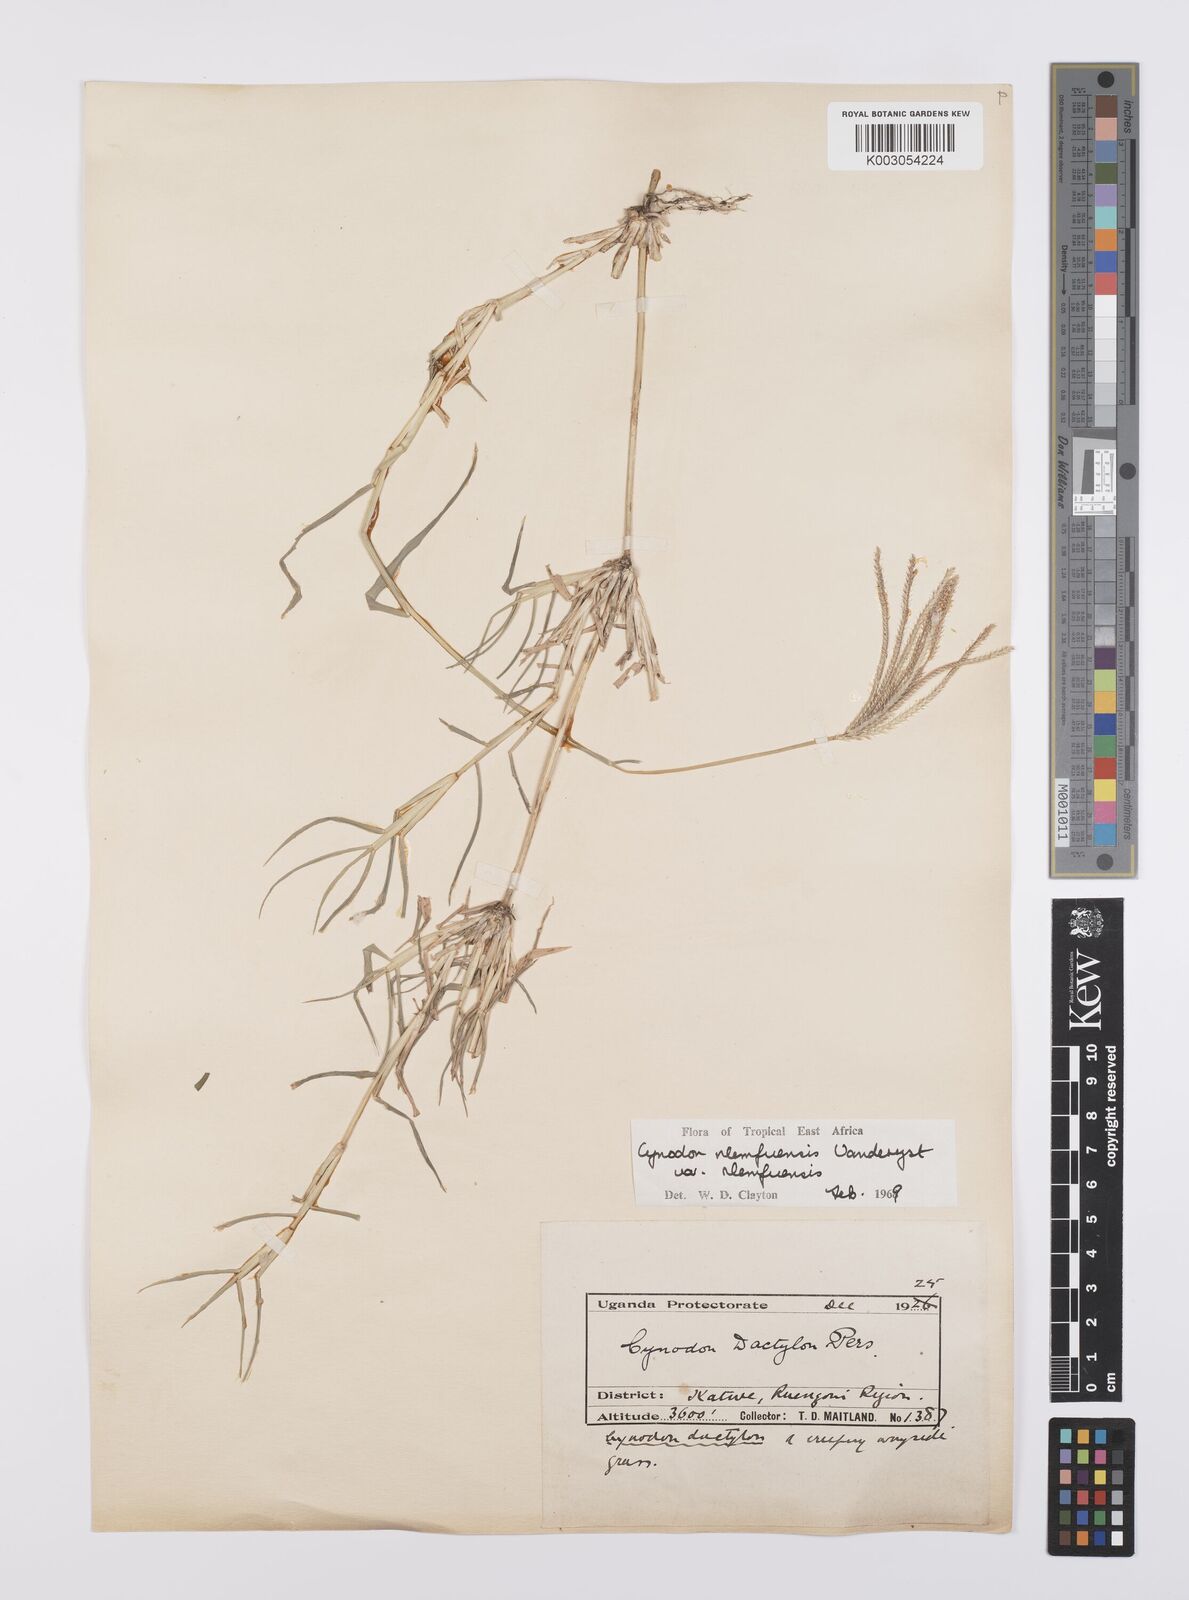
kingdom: Plantae
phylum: Tracheophyta
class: Liliopsida
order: Poales
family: Poaceae
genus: Cynodon
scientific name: Cynodon nlemfuensis
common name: African bermudagrass
